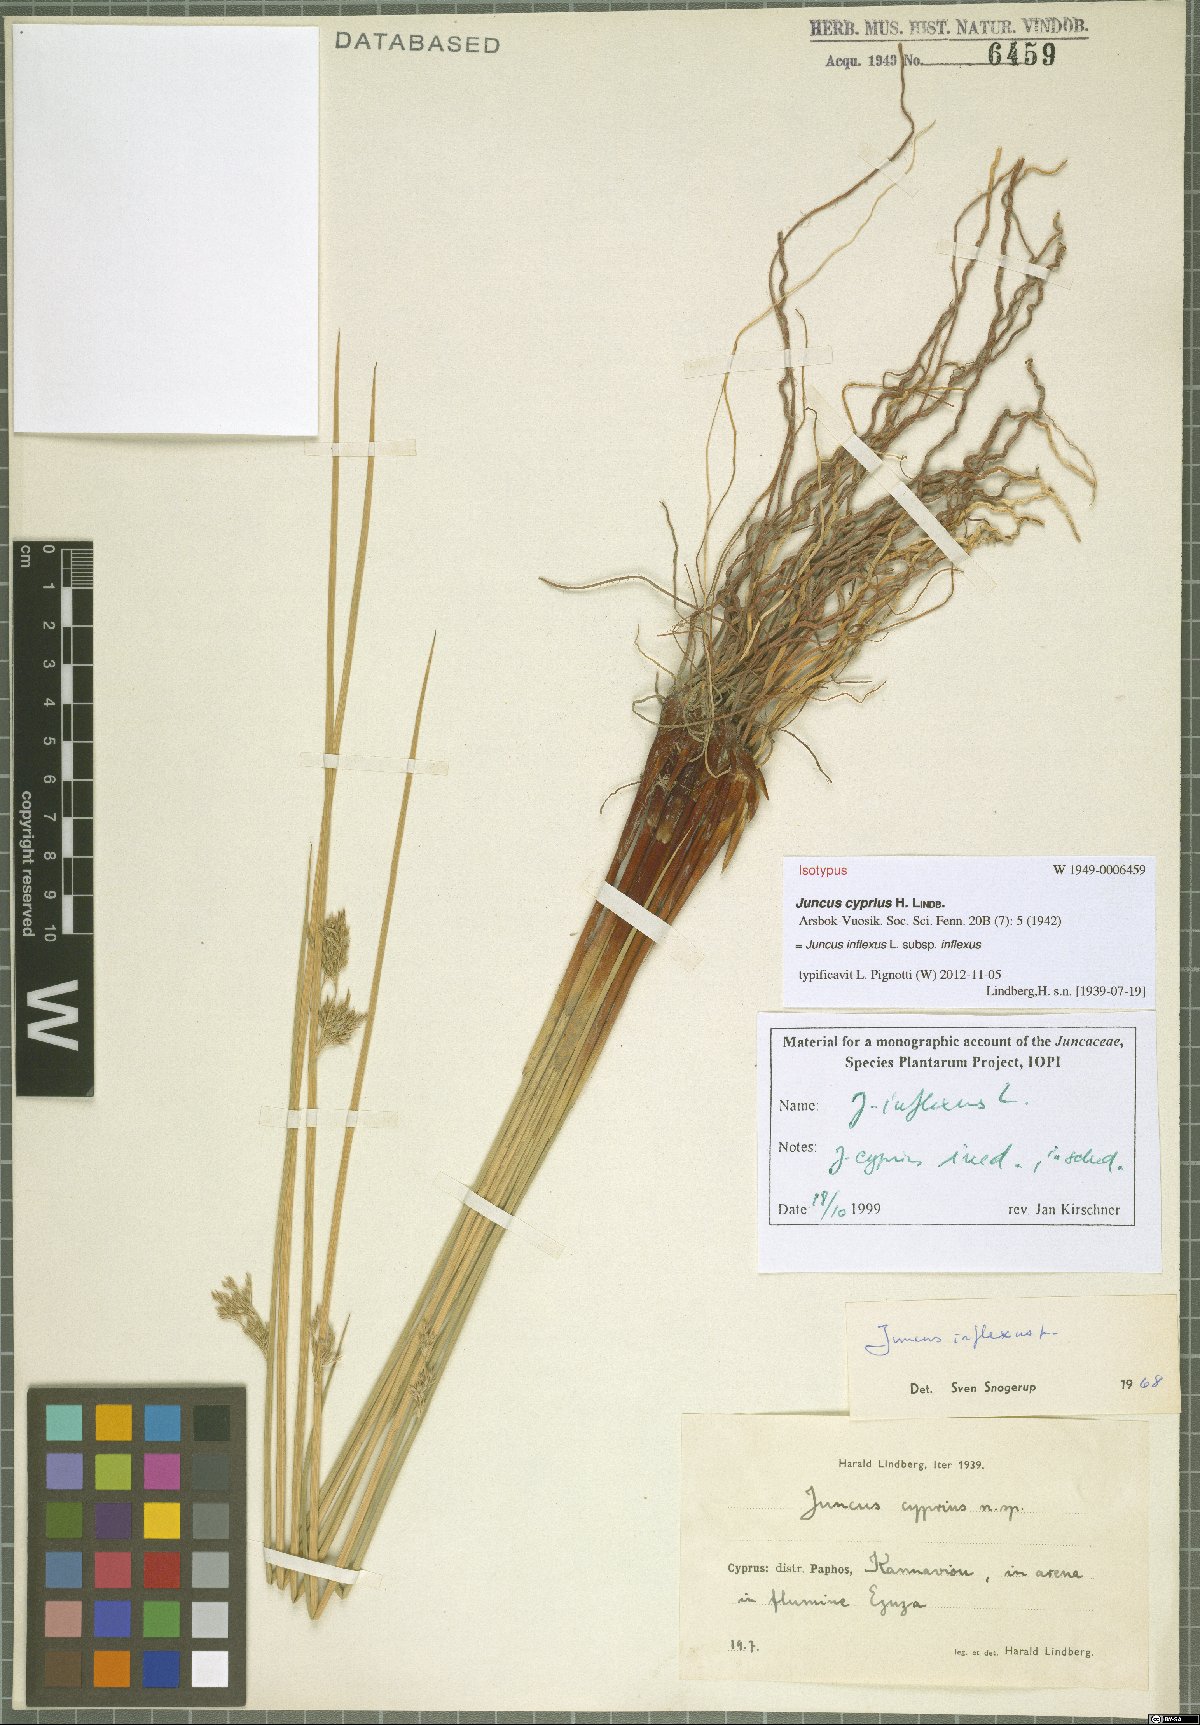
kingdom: Plantae
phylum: Tracheophyta
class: Liliopsida
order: Poales
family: Juncaceae
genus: Juncus
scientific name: Juncus inflexus
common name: Hard rush
